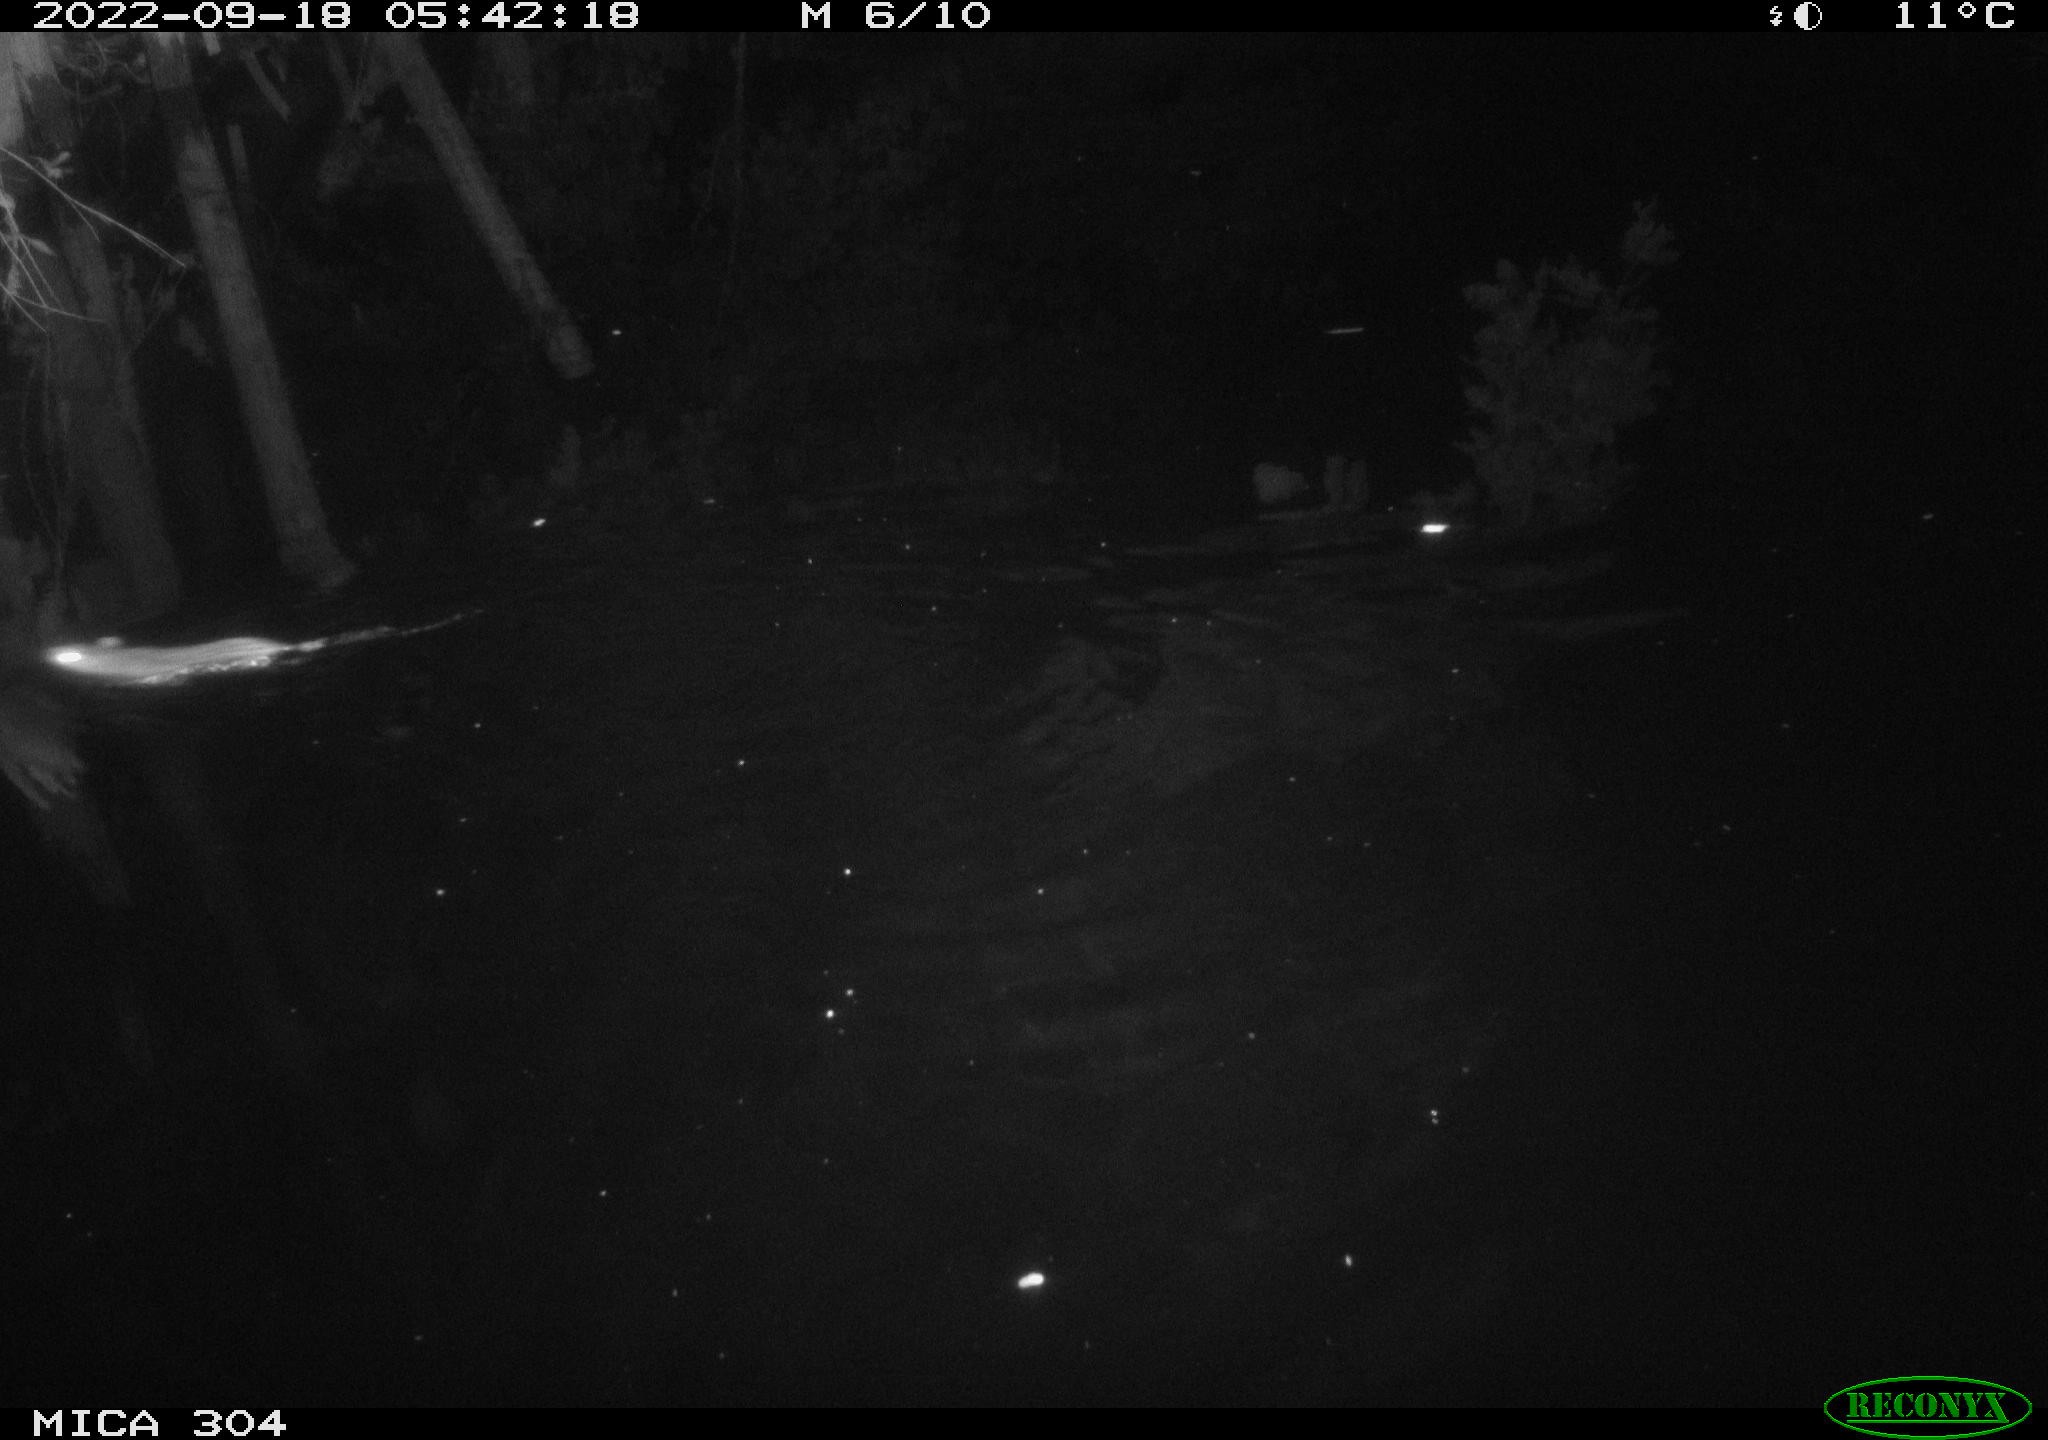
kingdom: Animalia
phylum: Chordata
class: Mammalia
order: Rodentia
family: Muridae
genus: Rattus
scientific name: Rattus norvegicus
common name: Brown rat
